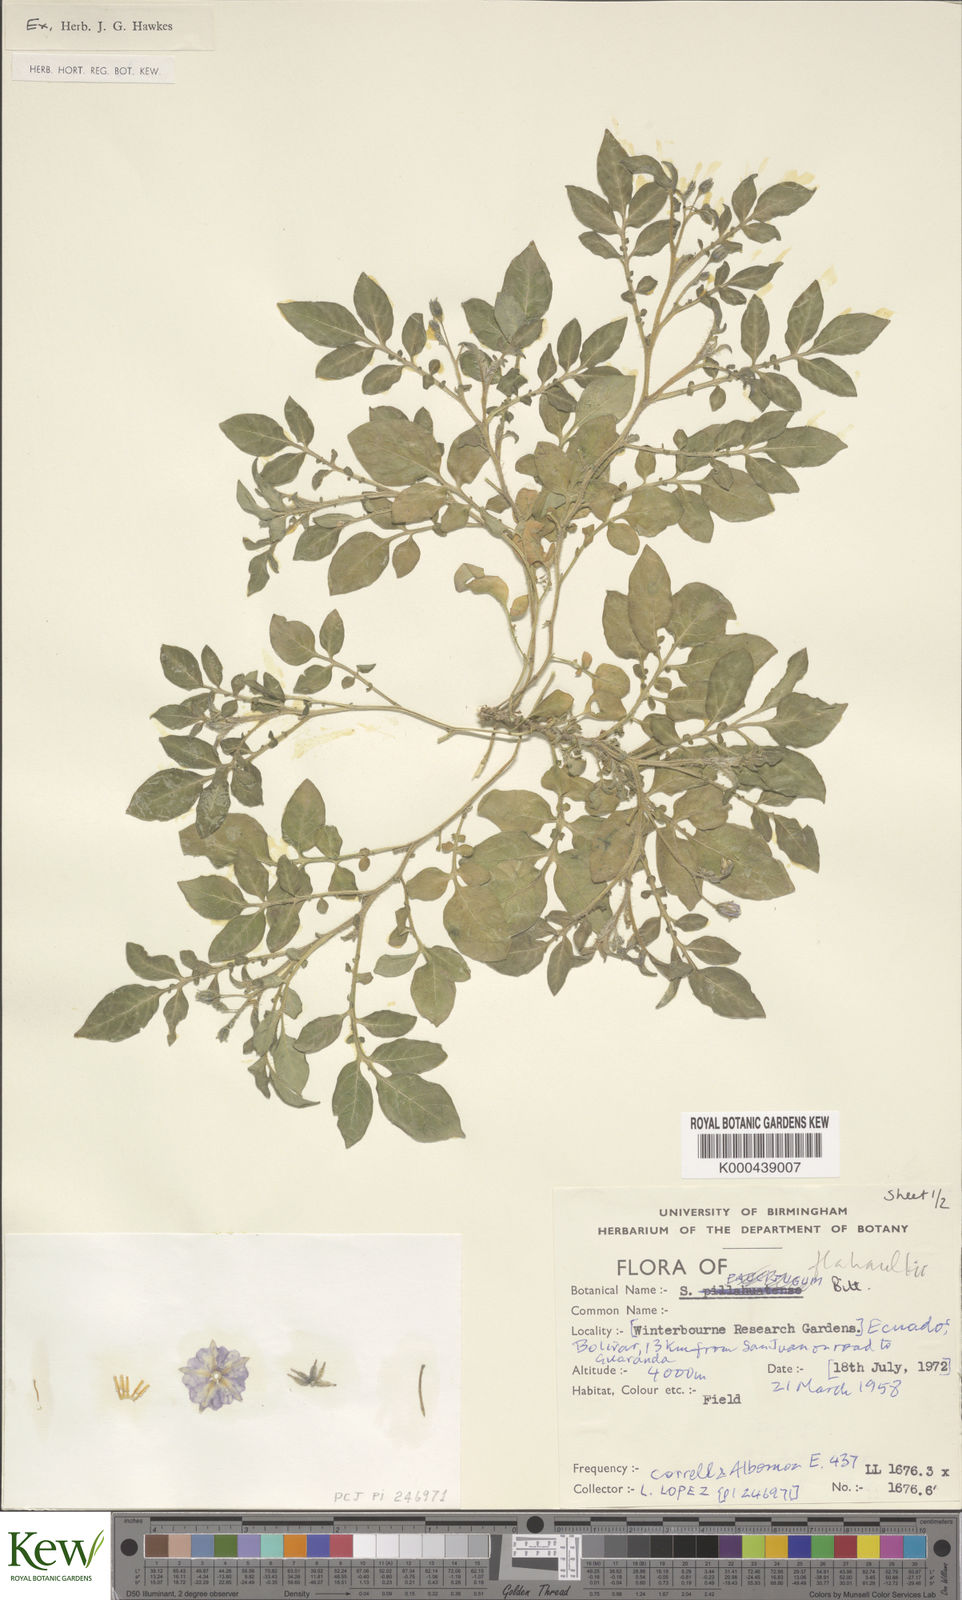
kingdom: Plantae
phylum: Tracheophyta
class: Magnoliopsida
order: Solanales
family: Solanaceae
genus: Solanum
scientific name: Solanum flahaultii
